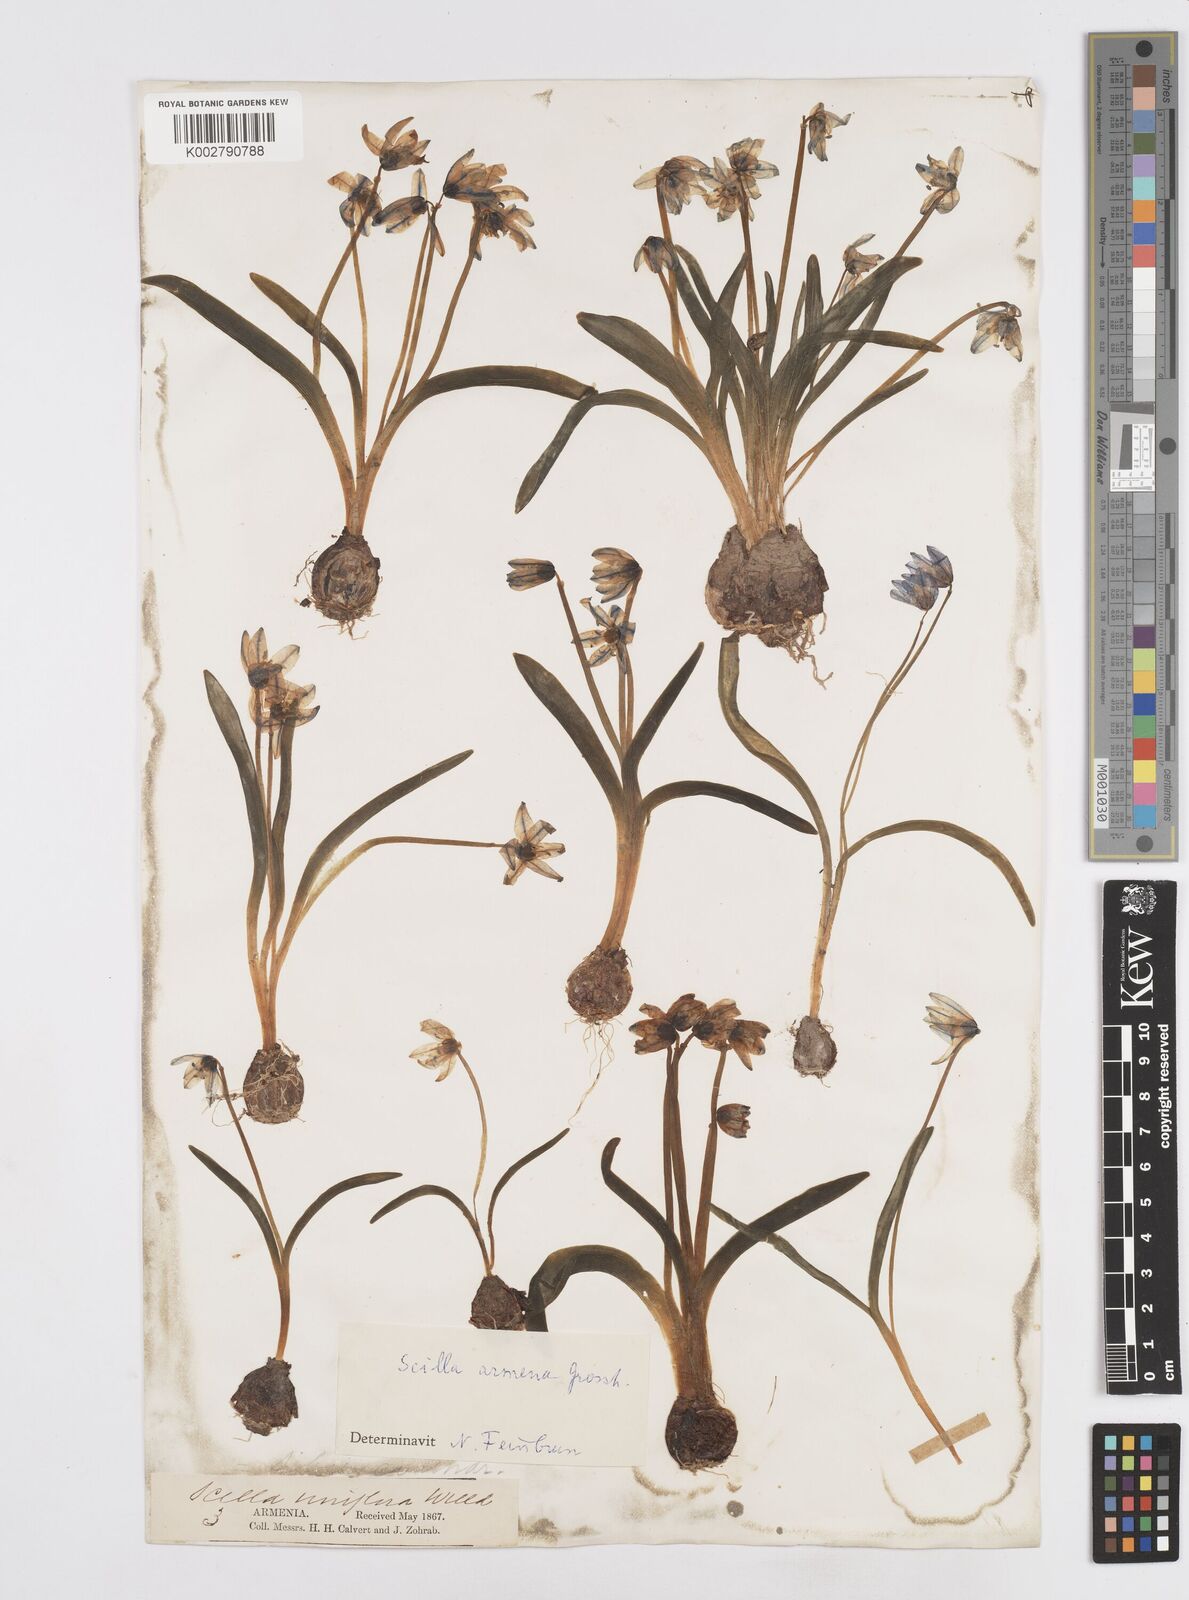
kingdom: Plantae
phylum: Tracheophyta
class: Liliopsida
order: Asparagales
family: Asparagaceae
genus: Scilla
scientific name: Scilla siberica
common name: Siberian squill
